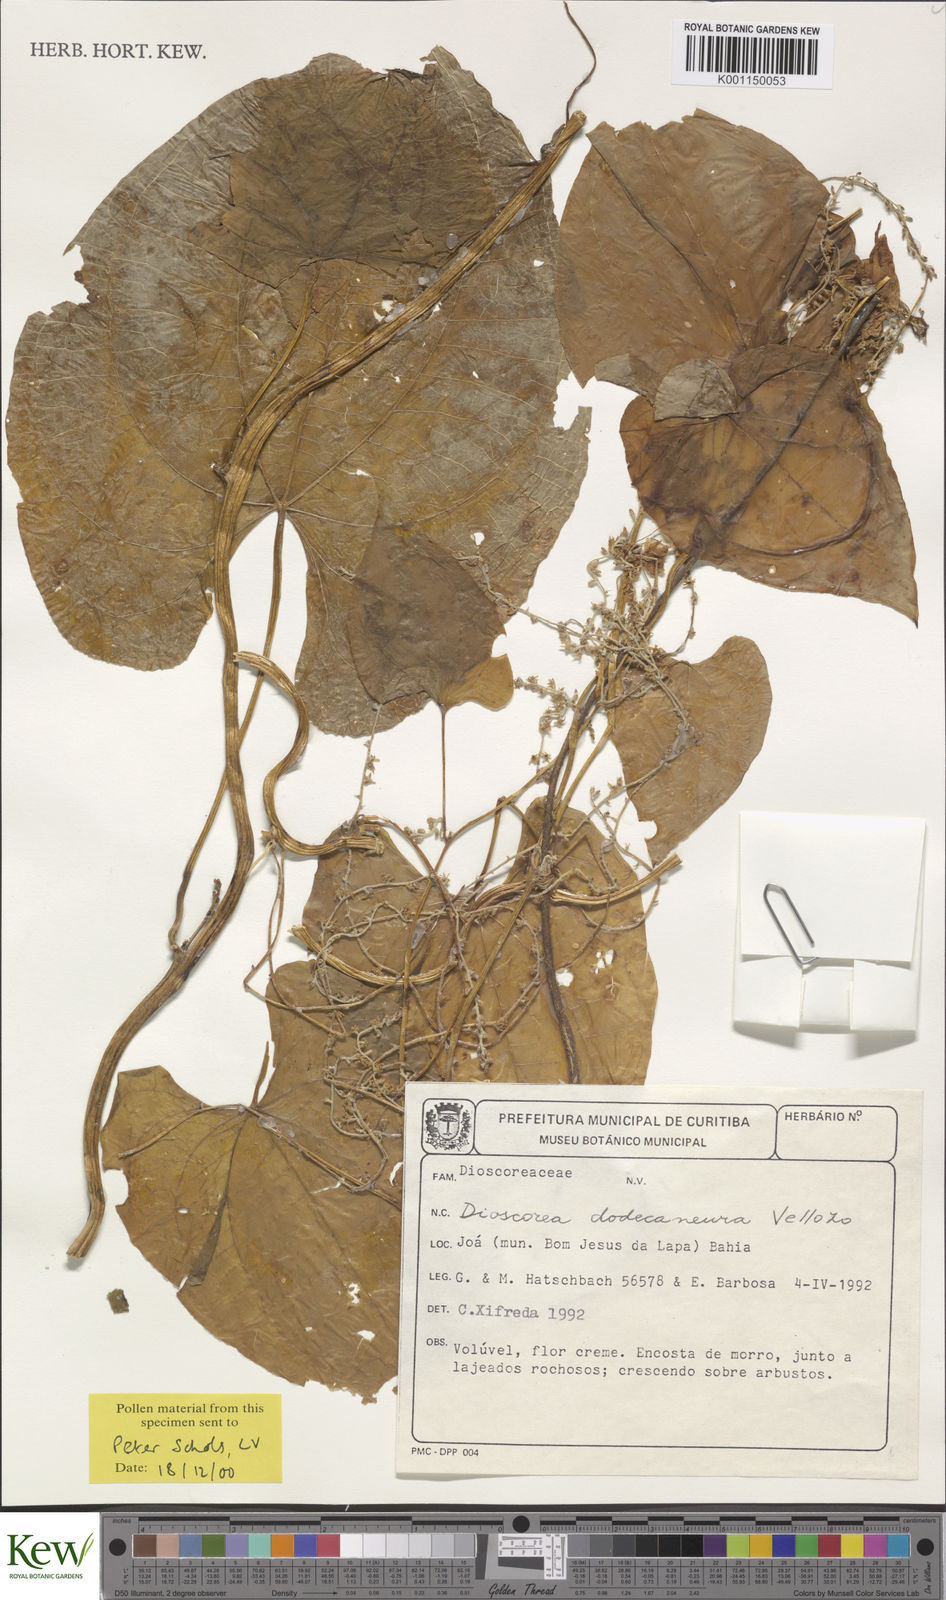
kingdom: Plantae
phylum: Tracheophyta
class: Liliopsida
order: Dioscoreales
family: Dioscoreaceae
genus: Dioscorea
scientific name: Dioscorea dodecaneura
